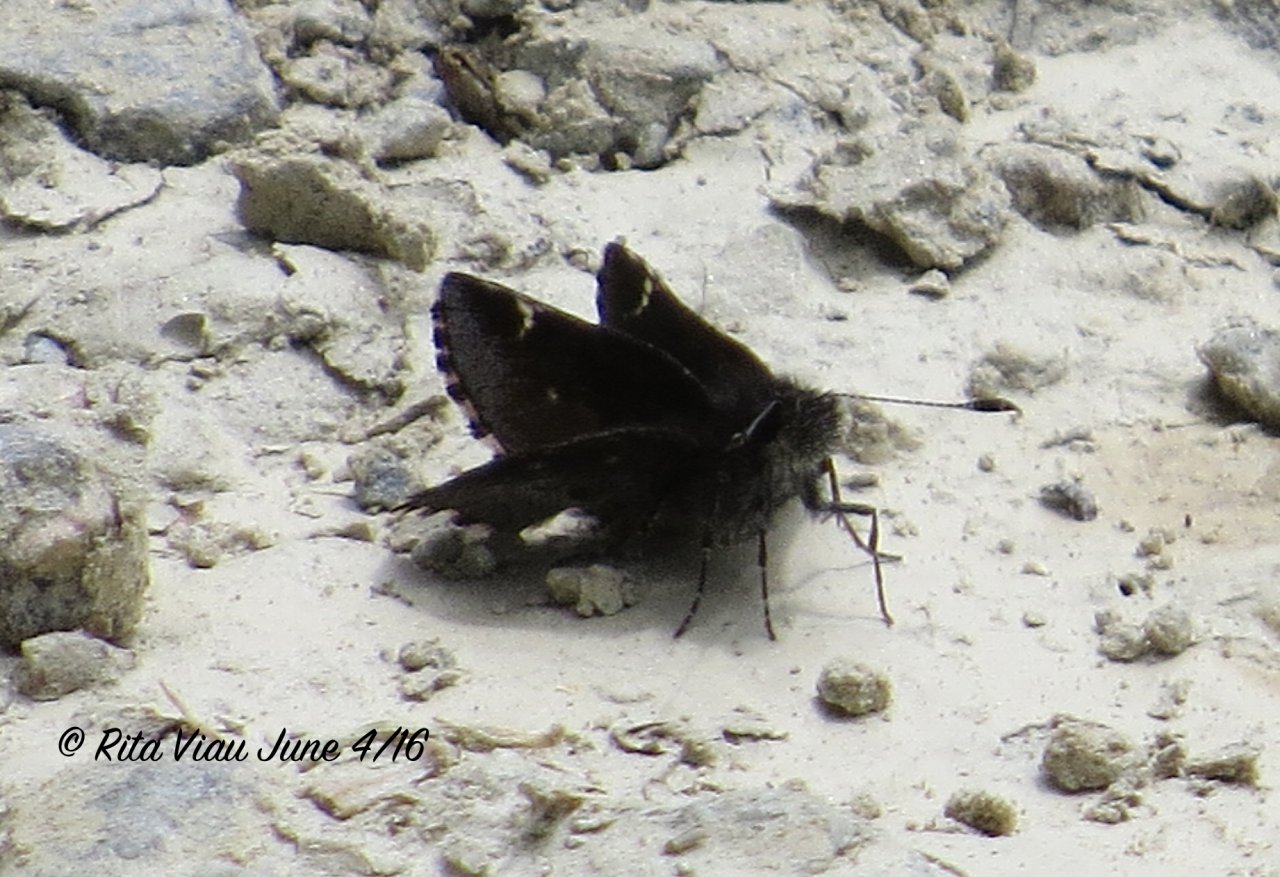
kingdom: Animalia
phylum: Arthropoda
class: Insecta
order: Lepidoptera
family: Hesperiidae
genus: Mastor
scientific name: Mastor vialis
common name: Common Roadside-Skipper
